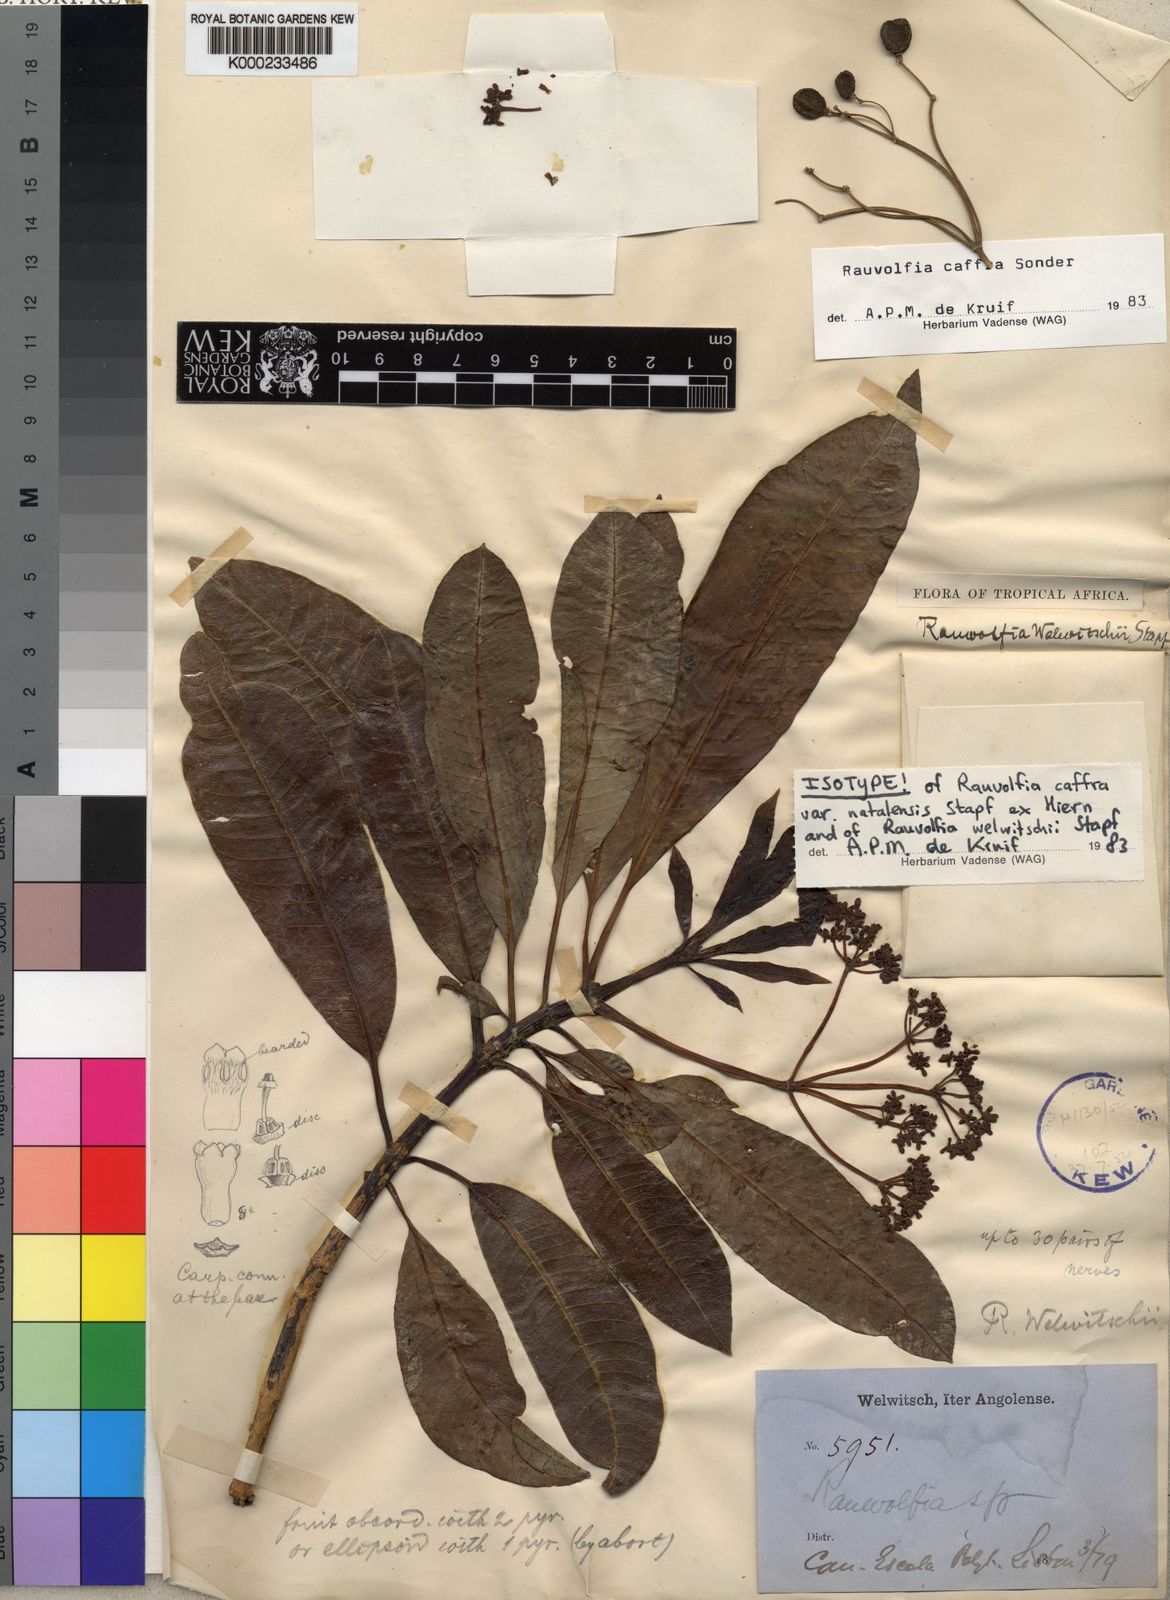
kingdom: Plantae
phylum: Tracheophyta
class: Magnoliopsida
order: Gentianales
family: Apocynaceae
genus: Rauvolfia
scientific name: Rauvolfia caffra
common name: Quininetree
